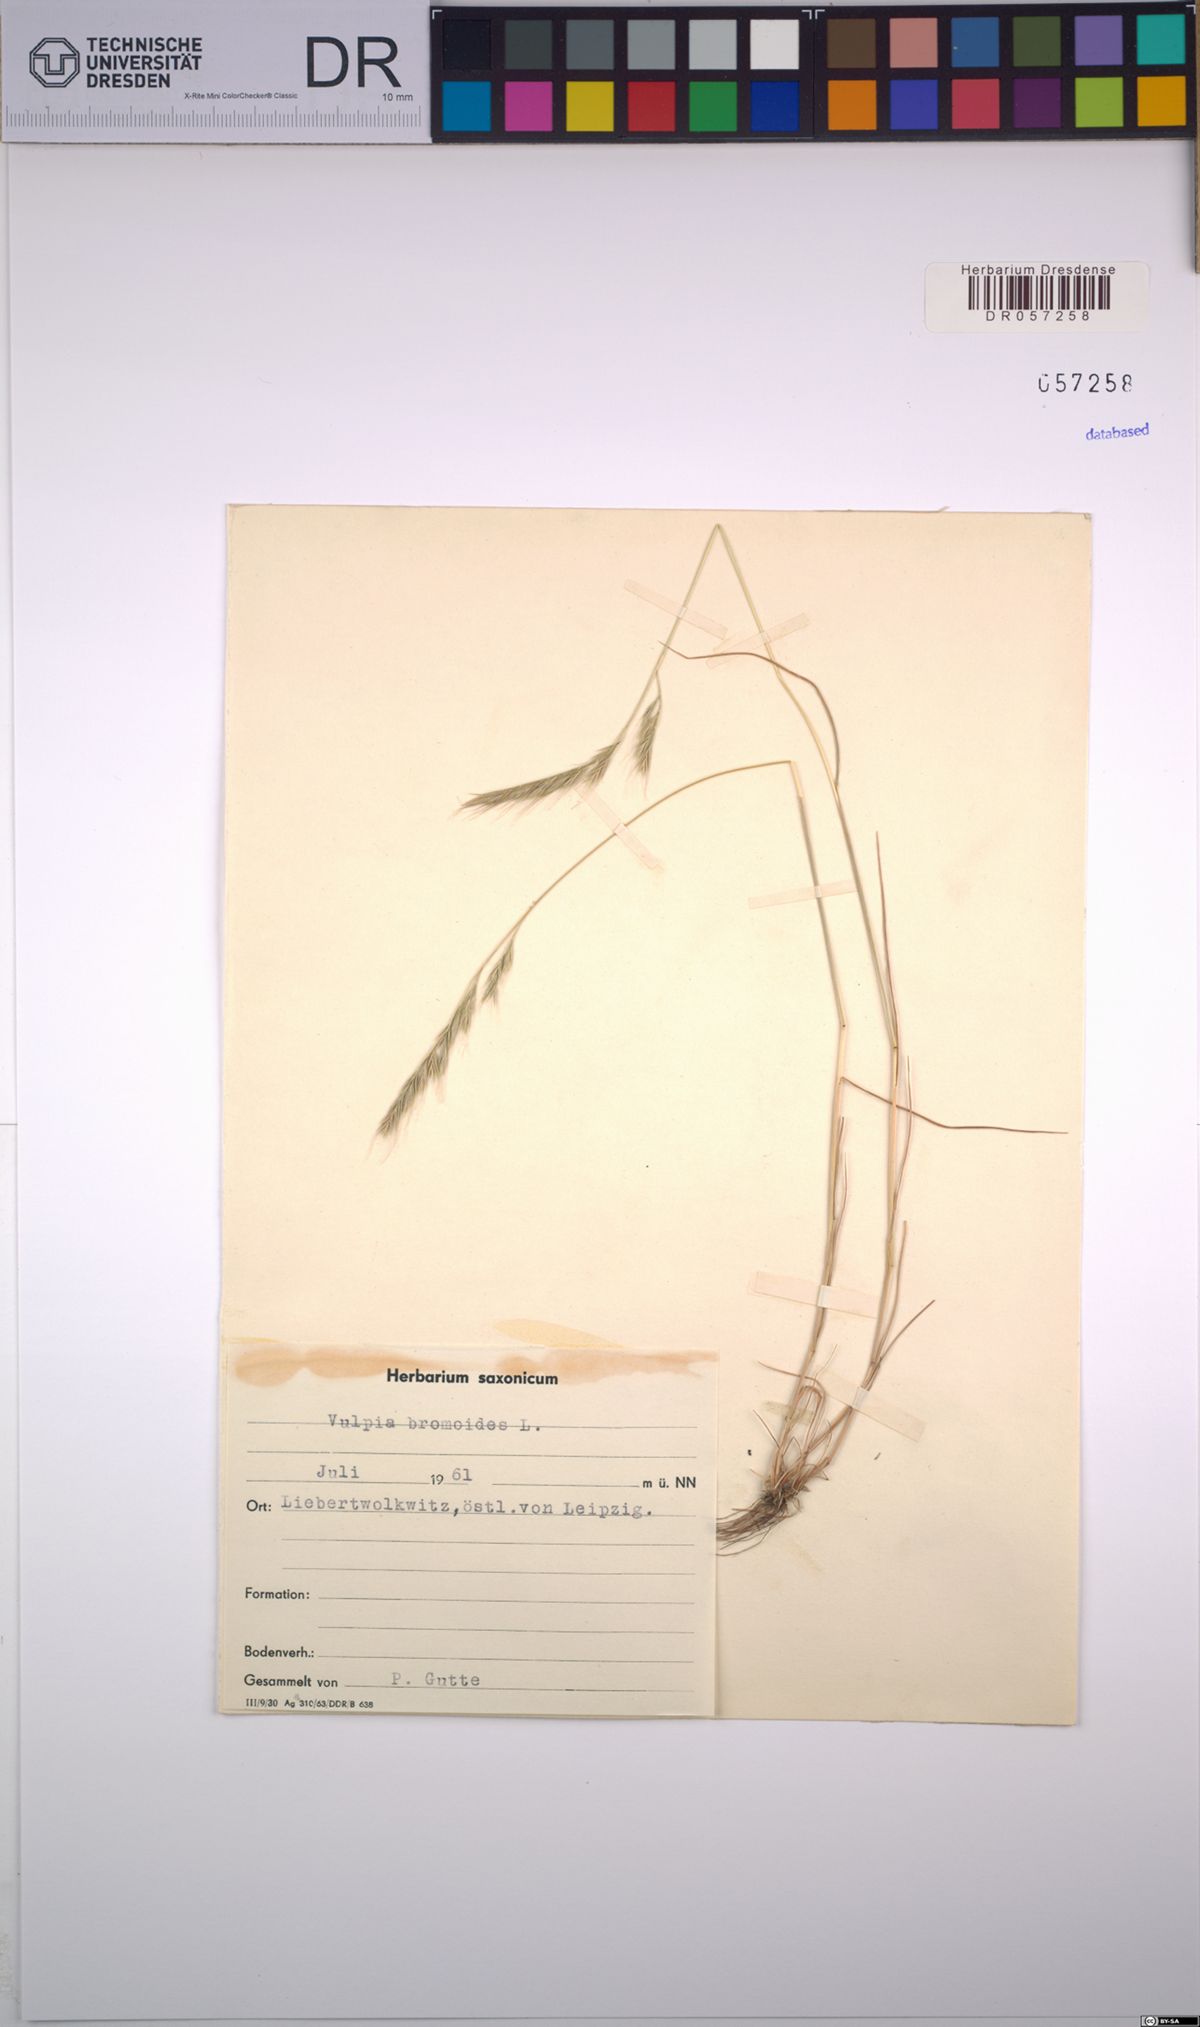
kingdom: Plantae
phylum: Tracheophyta
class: Liliopsida
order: Poales
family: Poaceae
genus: Festuca
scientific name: Festuca bromoides
